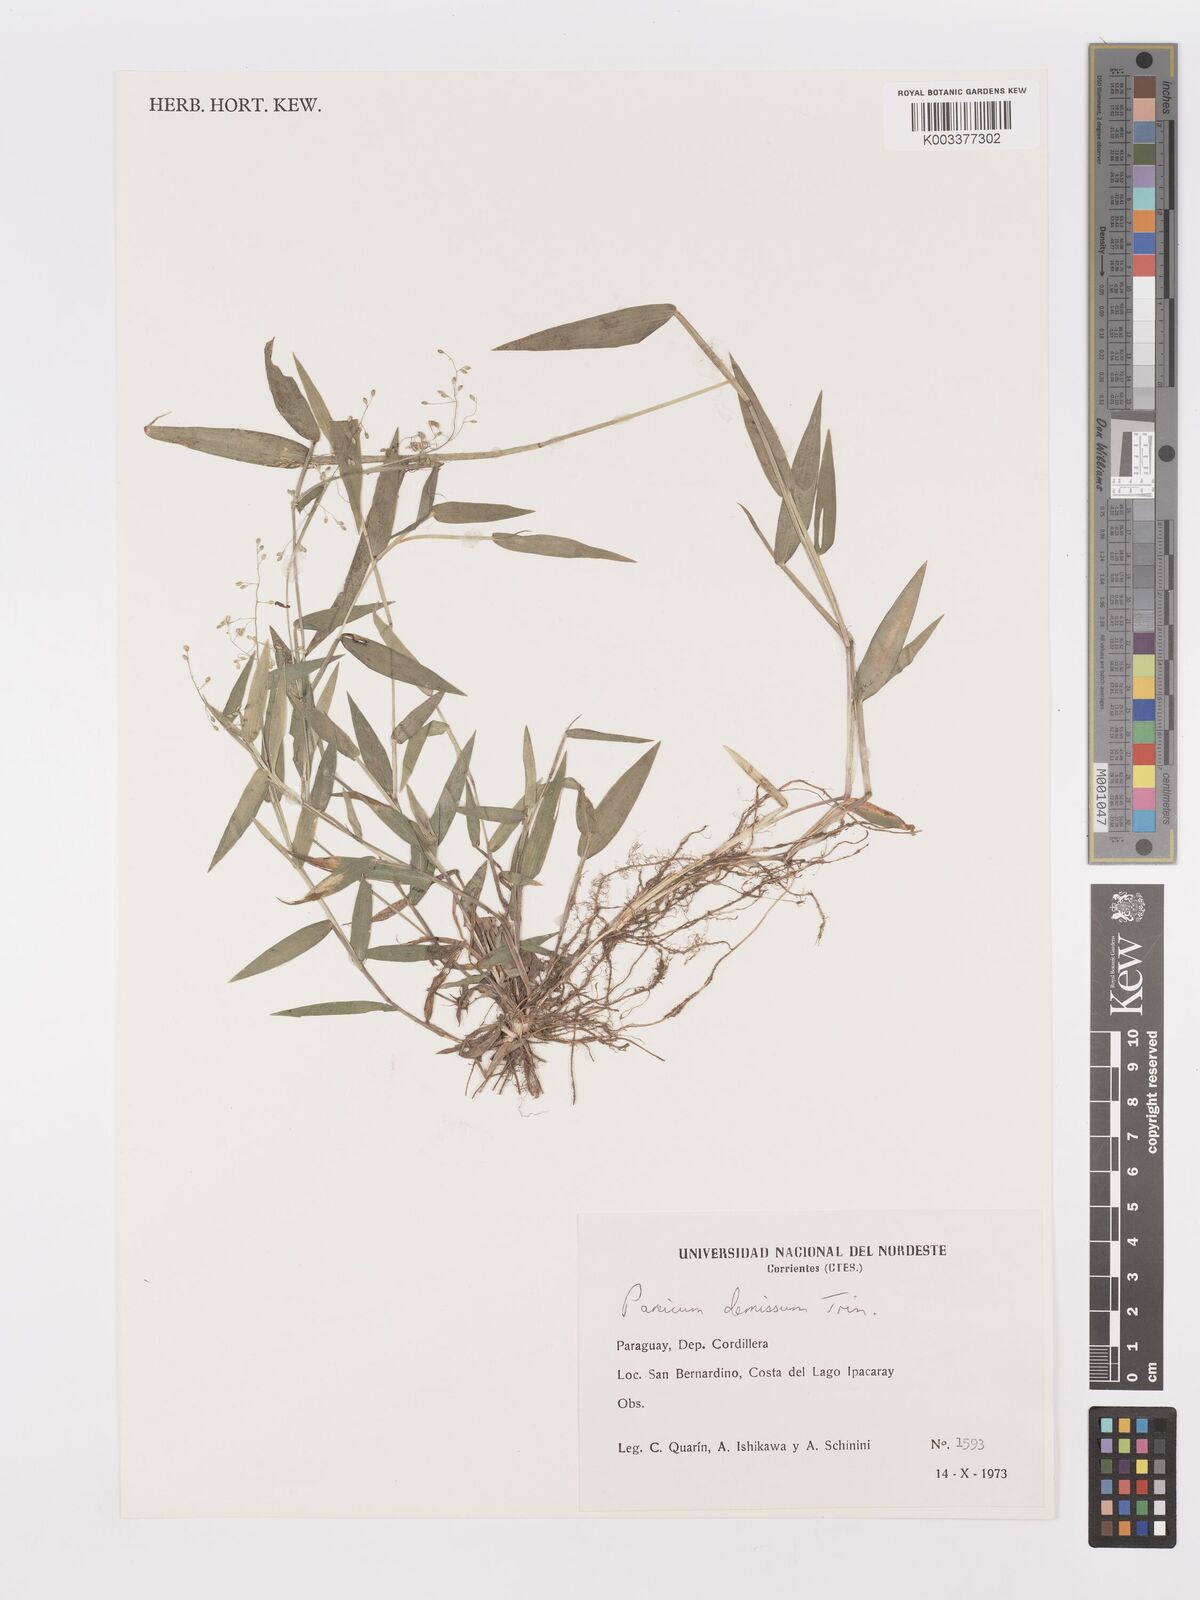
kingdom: Plantae
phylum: Tracheophyta
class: Liliopsida
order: Poales
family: Poaceae
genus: Dichanthelium
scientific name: Dichanthelium sabulorum
